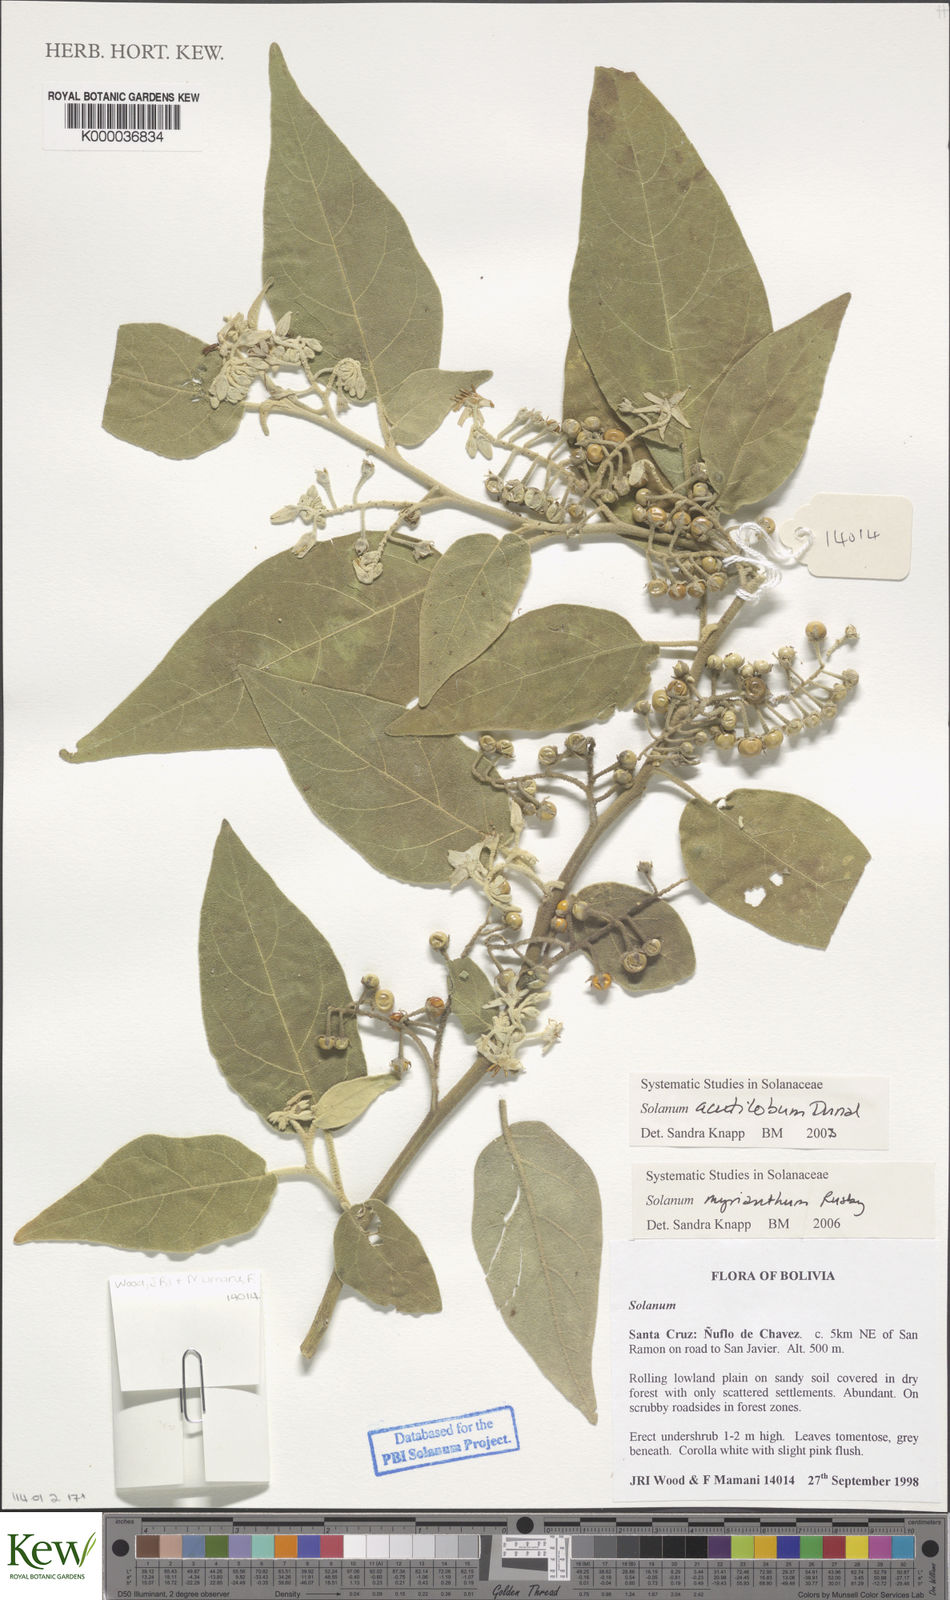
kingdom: Plantae
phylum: Tracheophyta
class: Magnoliopsida
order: Solanales
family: Solanaceae
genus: Solanum
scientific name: Solanum
